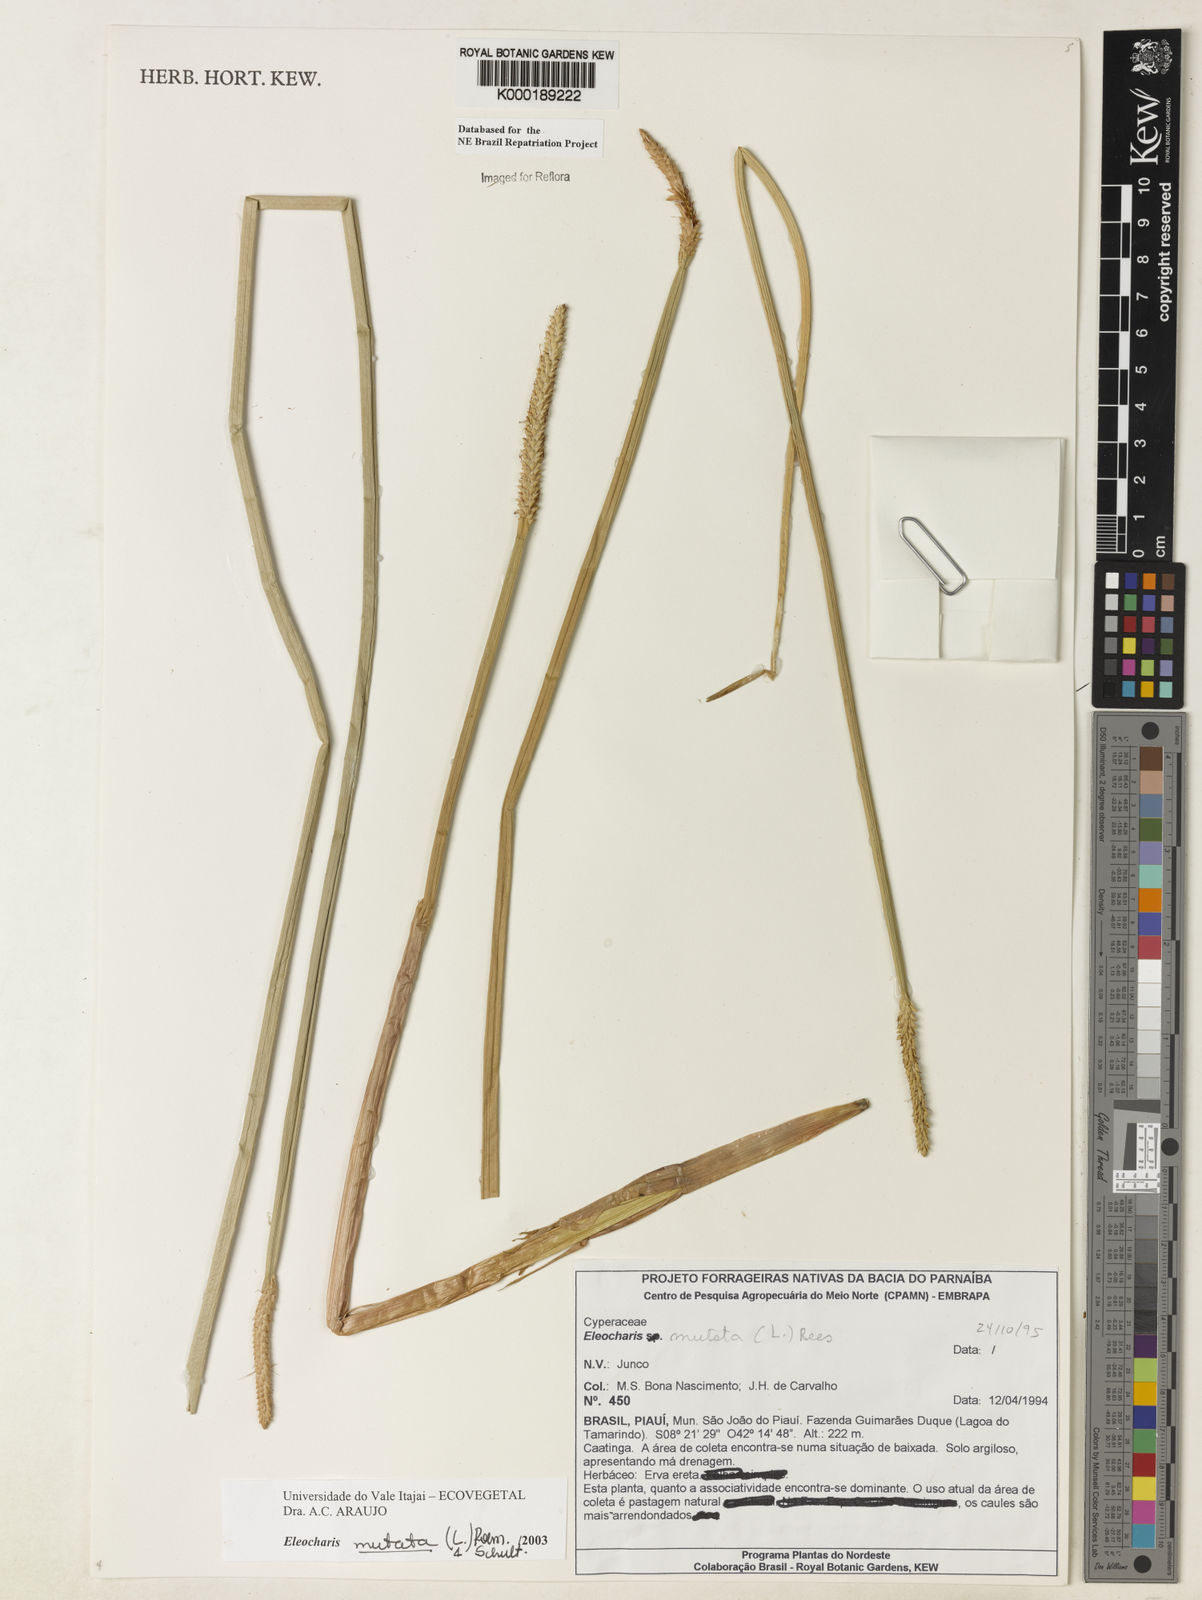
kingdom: Plantae
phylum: Tracheophyta
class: Liliopsida
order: Poales
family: Cyperaceae
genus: Eleocharis
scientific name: Eleocharis mutata
